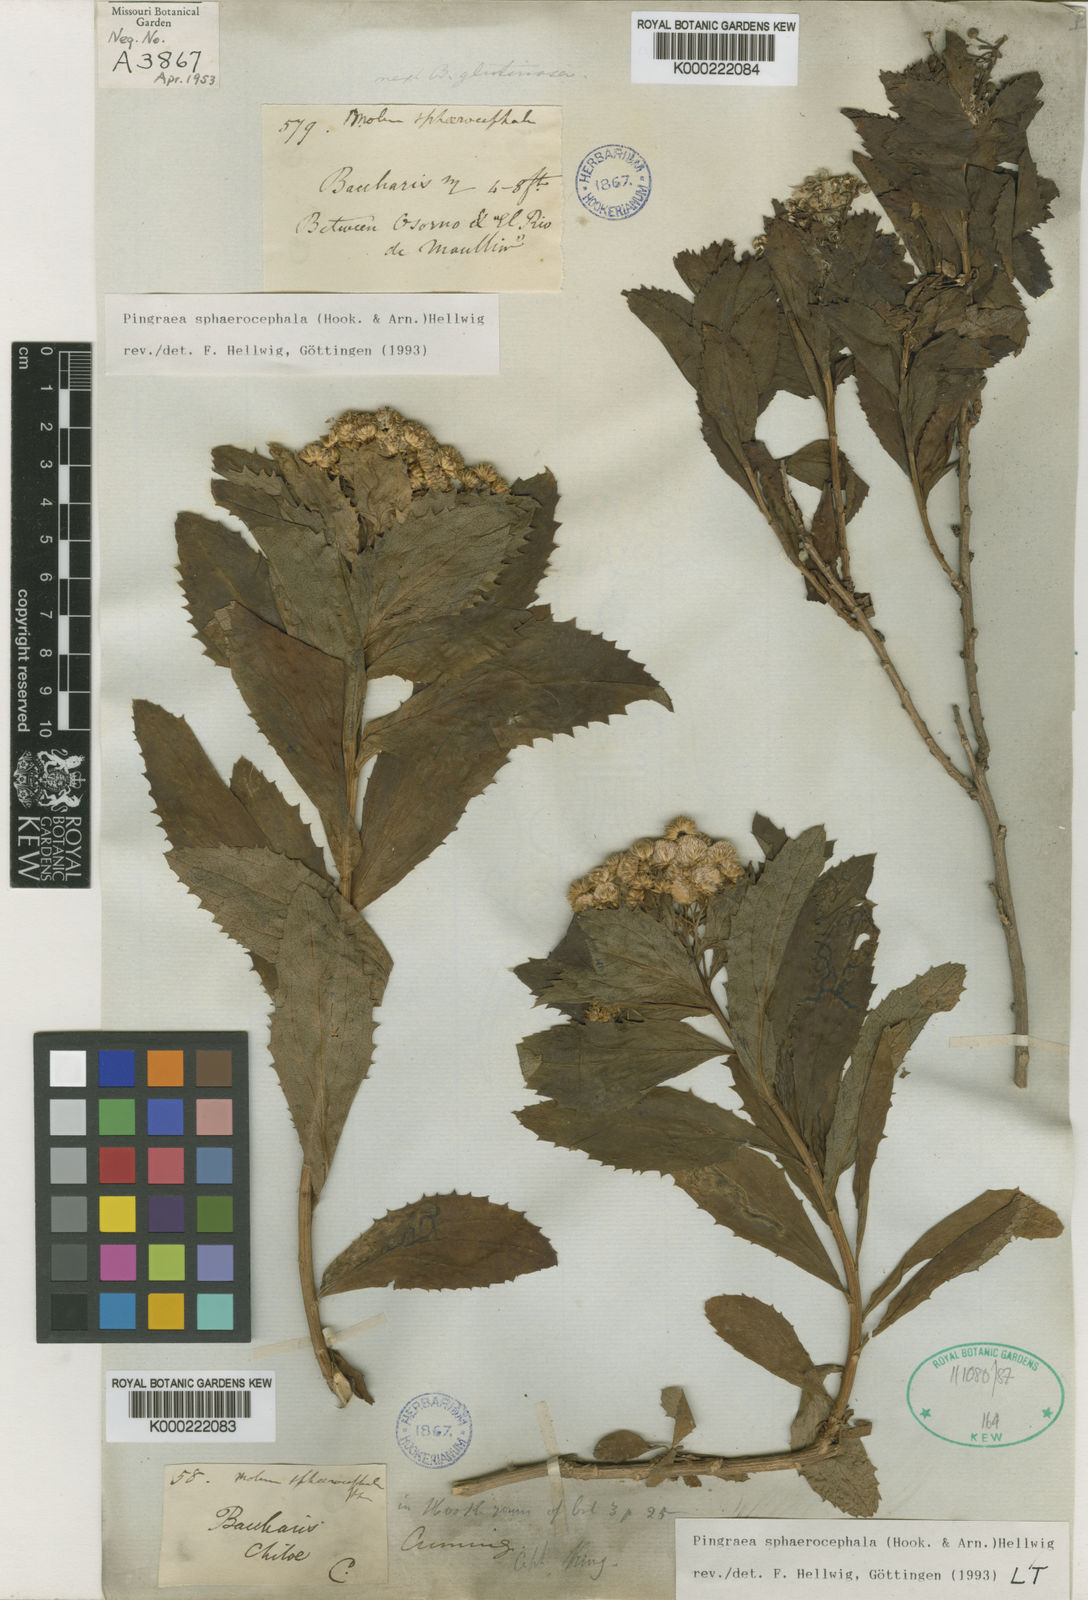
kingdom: Plantae
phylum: Tracheophyta
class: Magnoliopsida
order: Asterales
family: Asteraceae
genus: Baccharis
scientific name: Baccharis sphaerocephala
